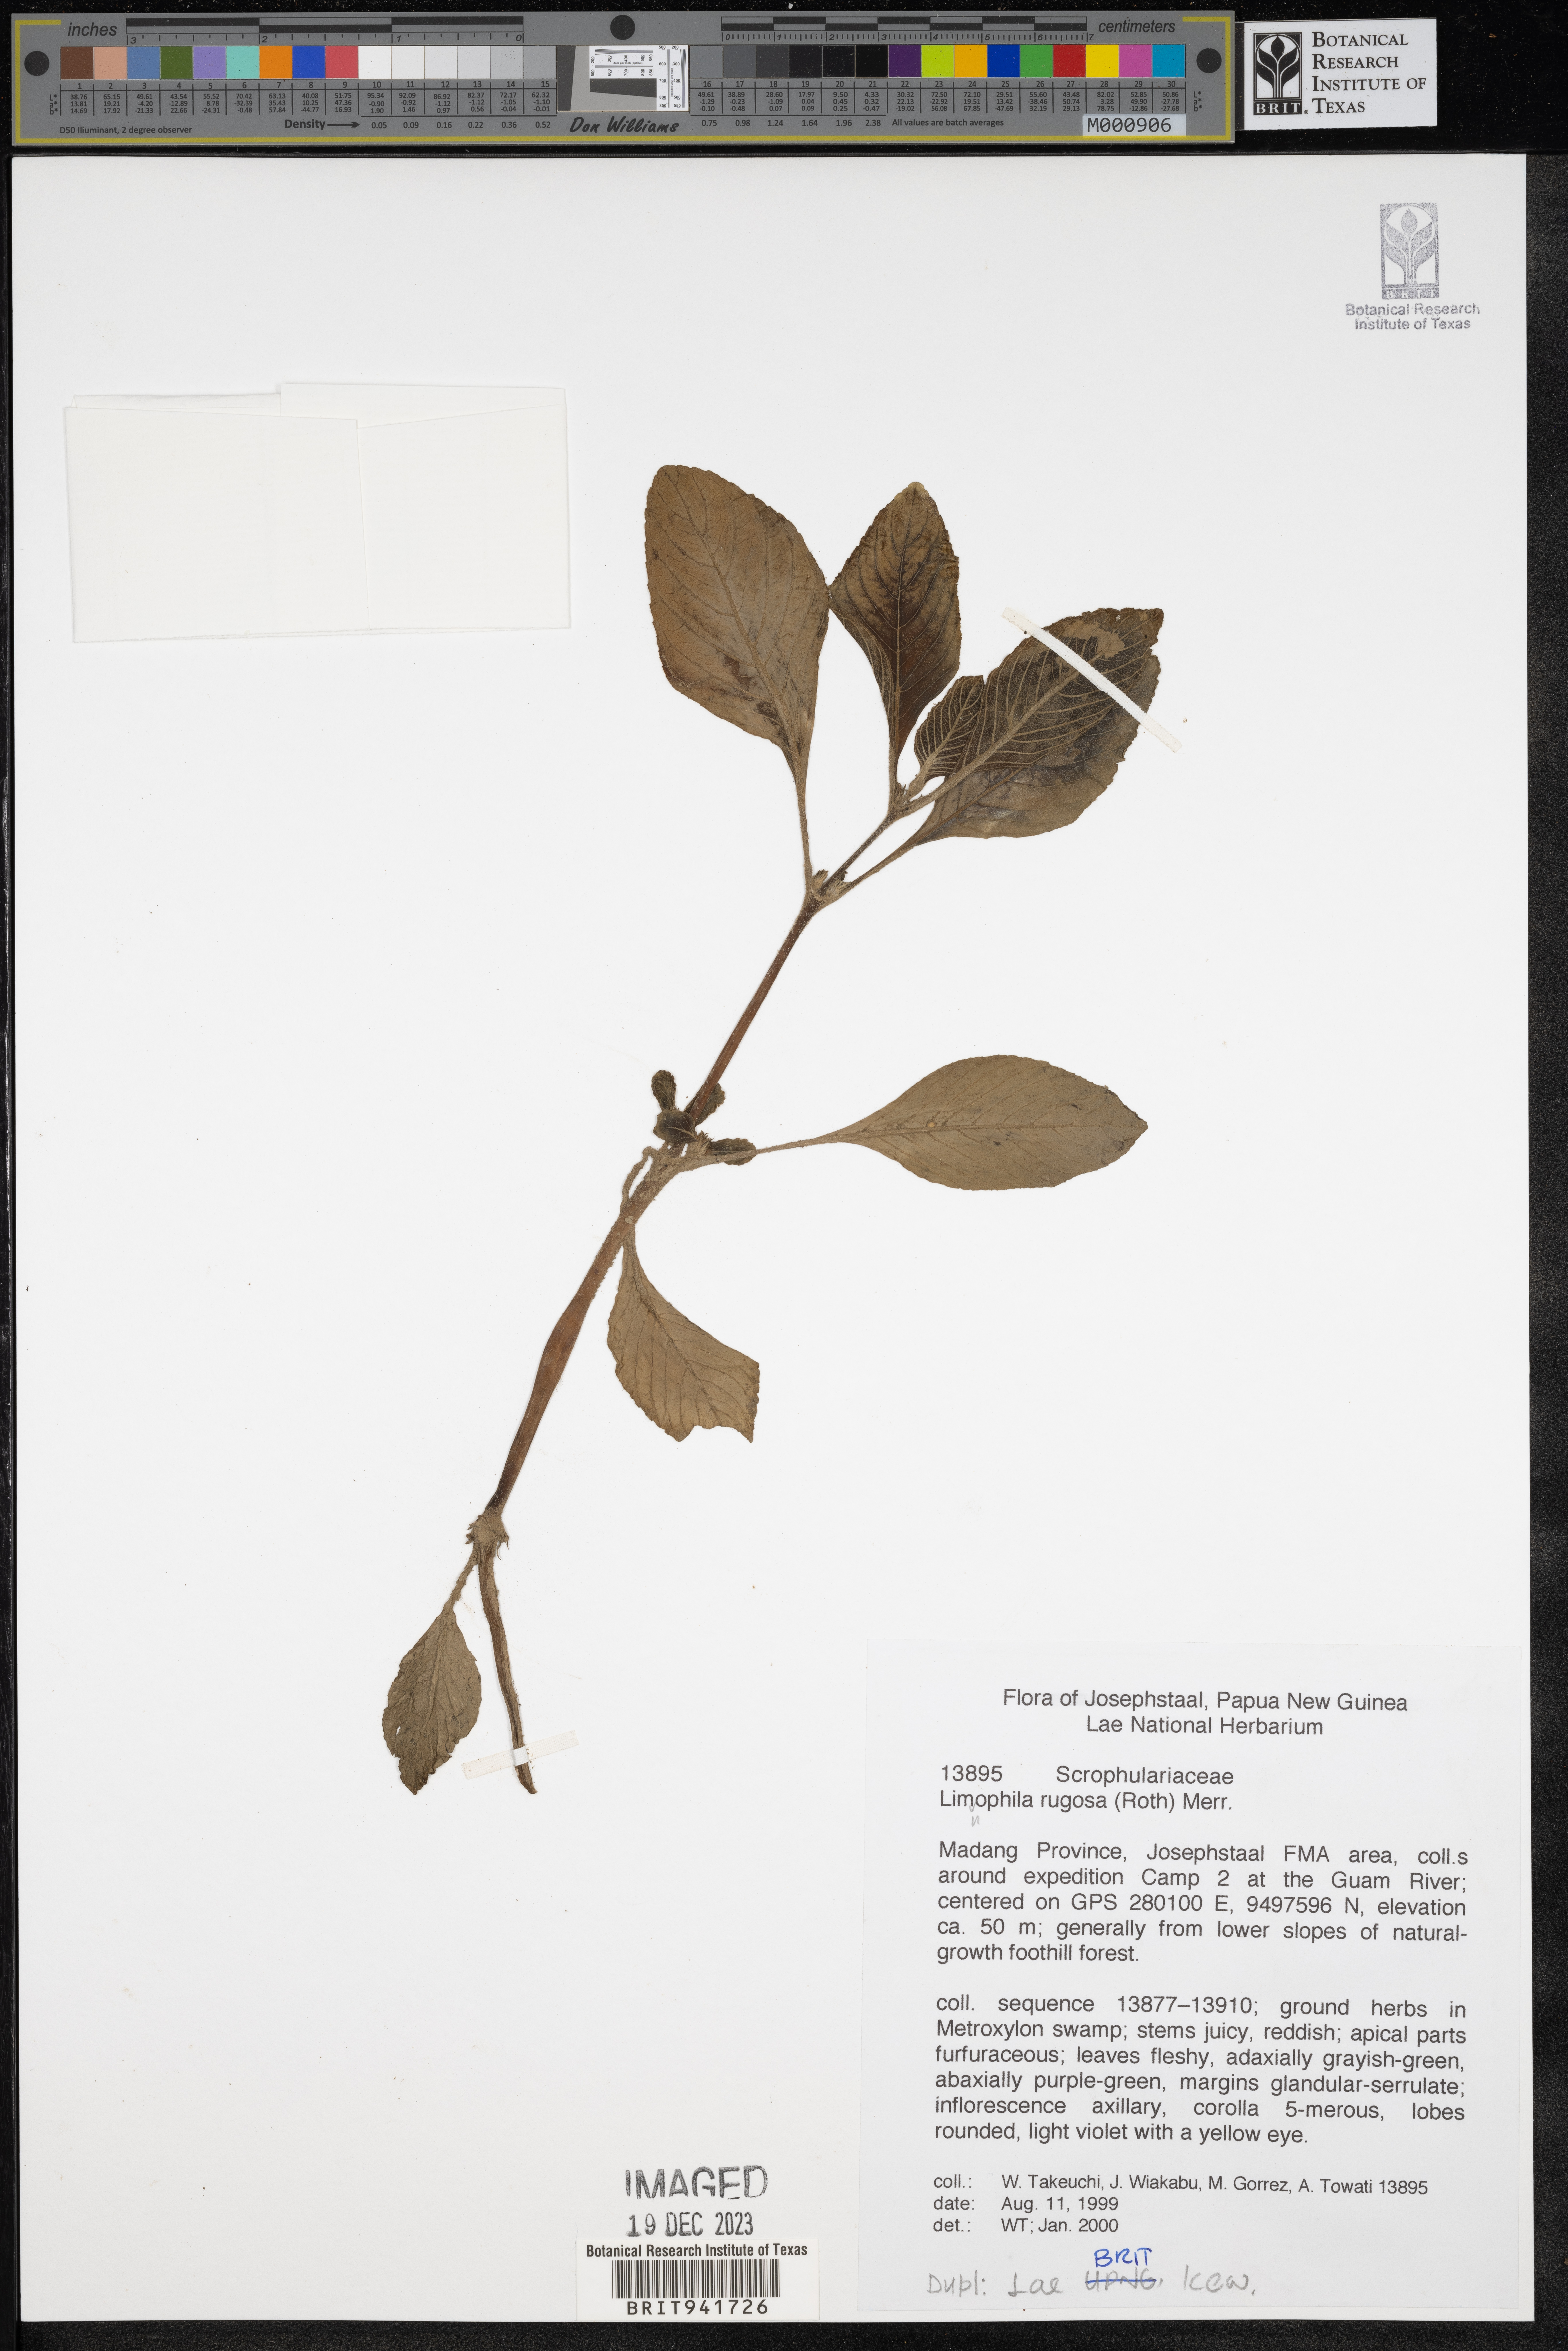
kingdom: Plantae
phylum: Tracheophyta
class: Magnoliopsida
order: Lamiales
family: Scrophulariaceae
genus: Lymnophila
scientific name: Lymnophila
